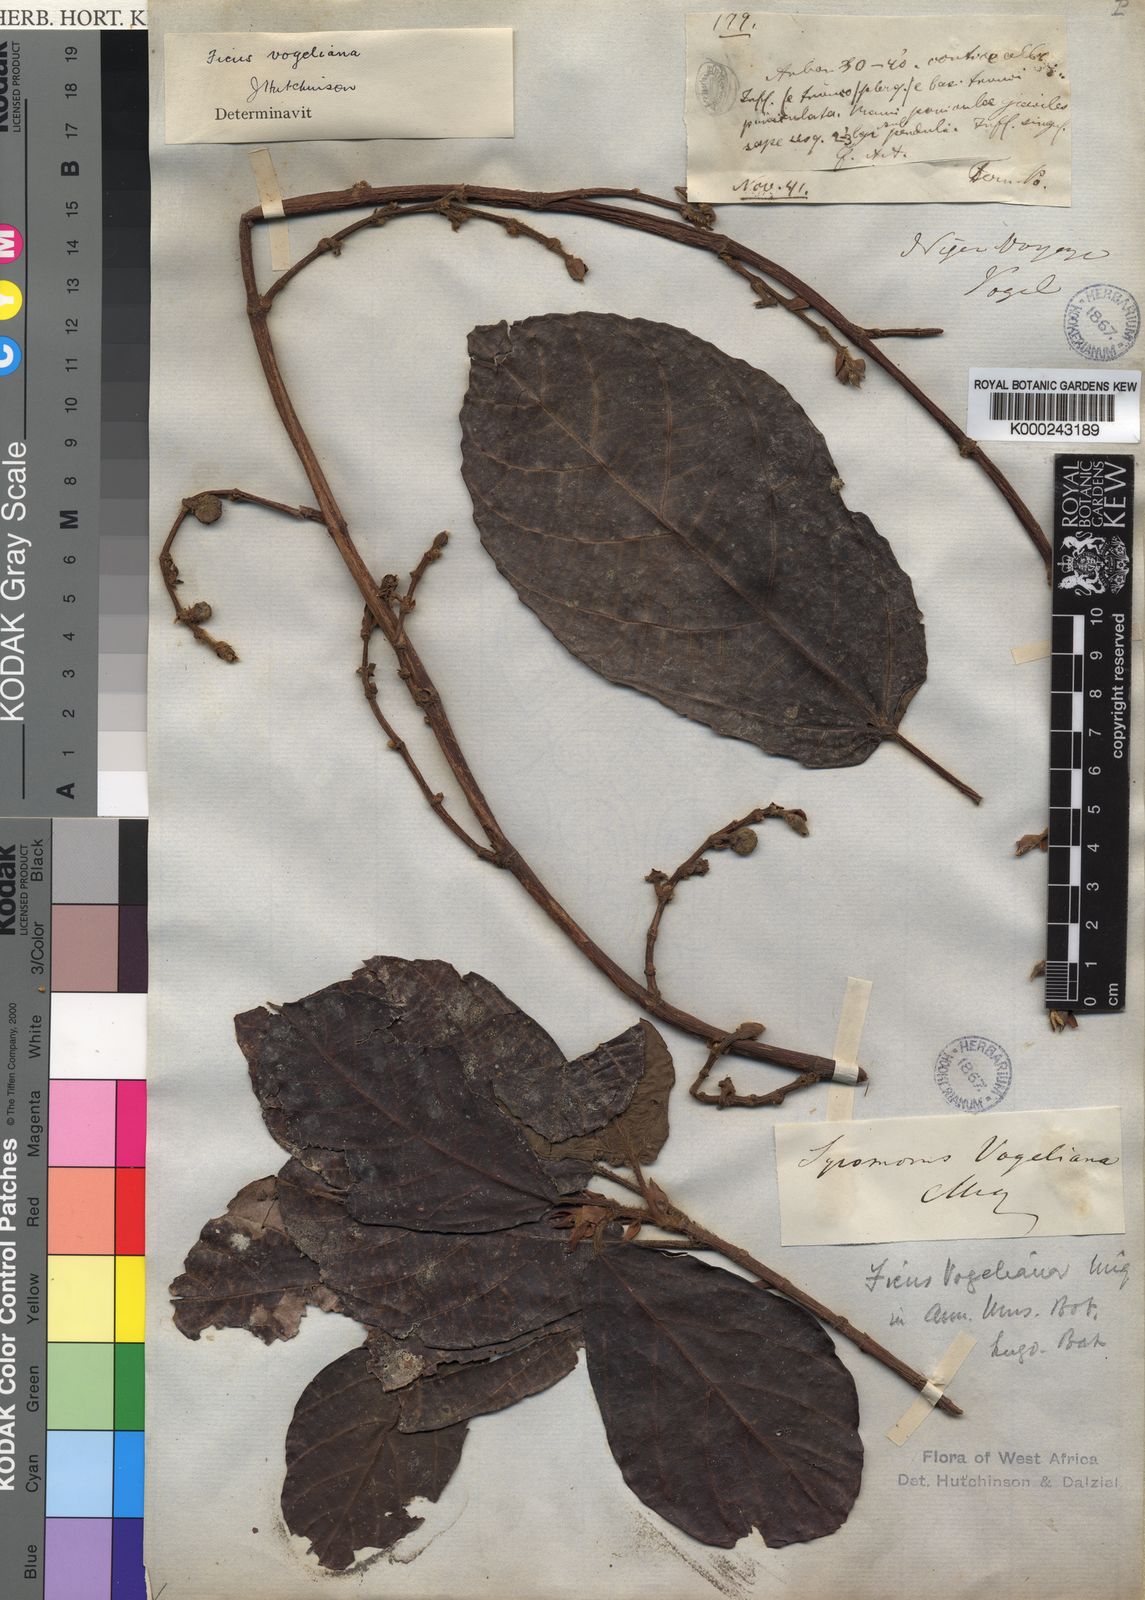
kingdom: Plantae
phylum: Tracheophyta
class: Magnoliopsida
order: Rosales
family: Moraceae
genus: Ficus
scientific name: Ficus vogeliana
